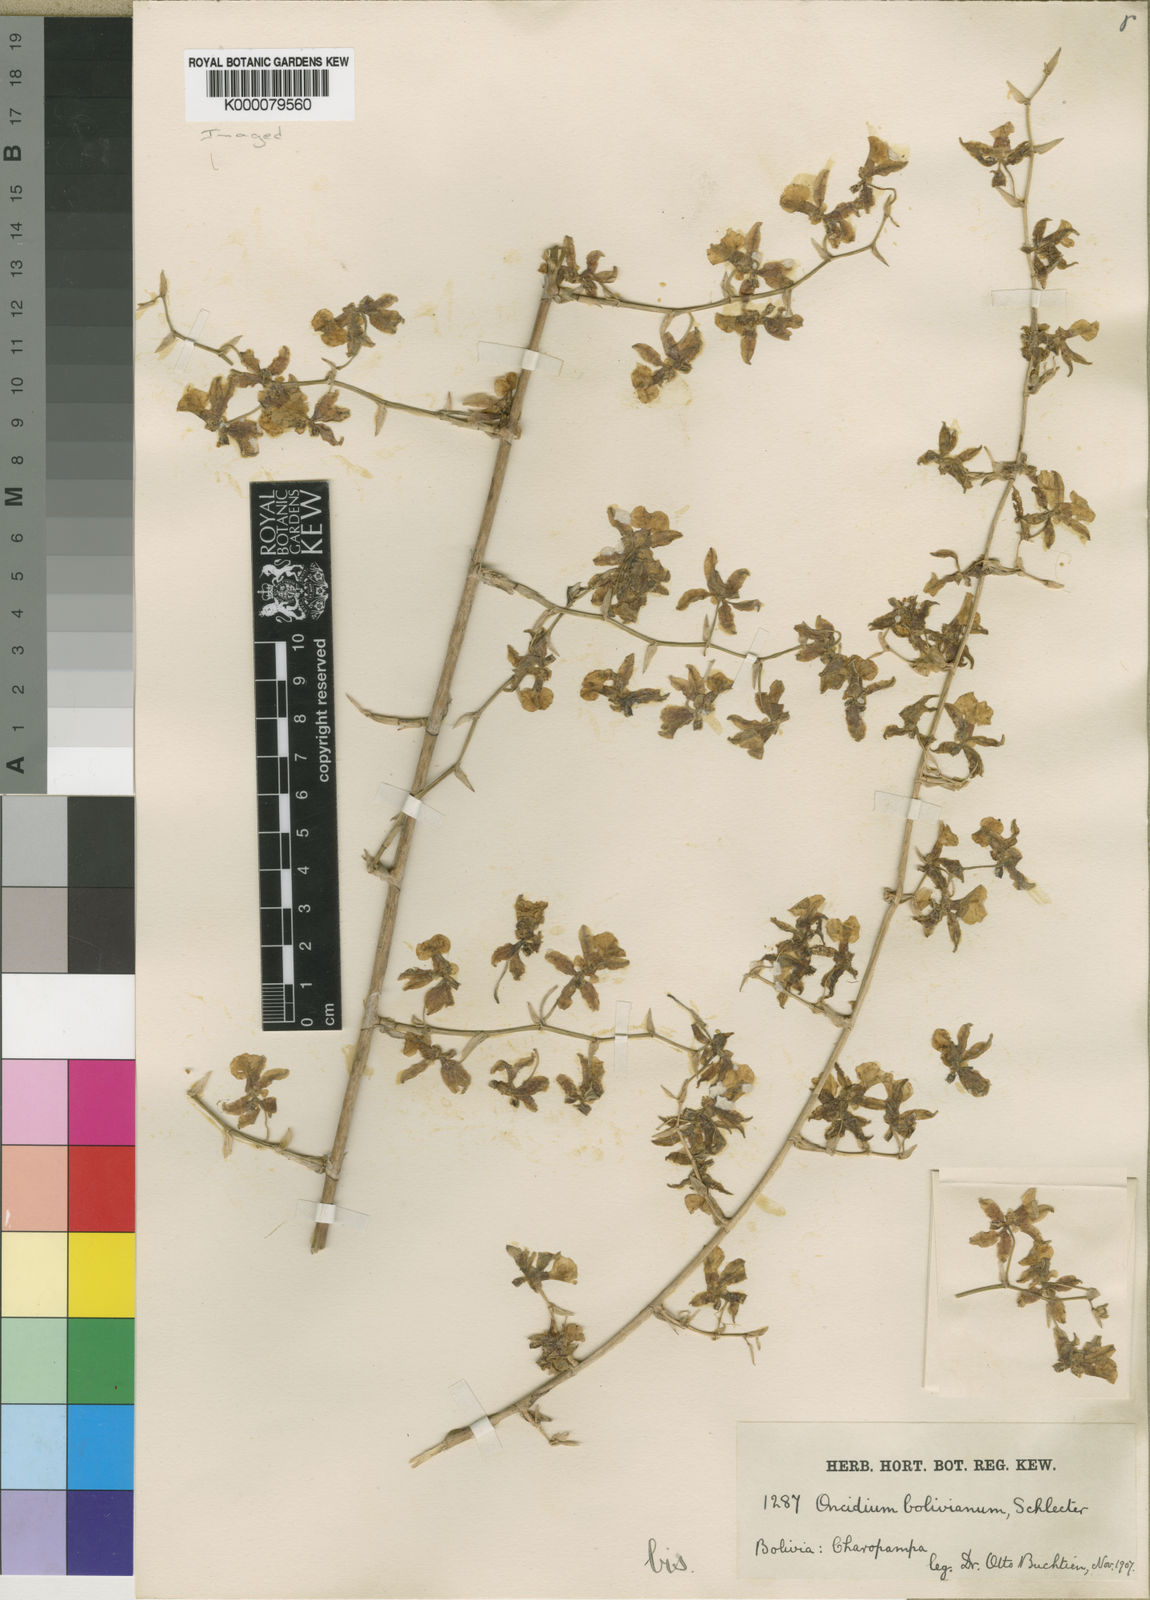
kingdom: Plantae
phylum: Tracheophyta
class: Liliopsida
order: Asparagales
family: Orchidaceae
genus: Oncidium
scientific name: Oncidium baueri
